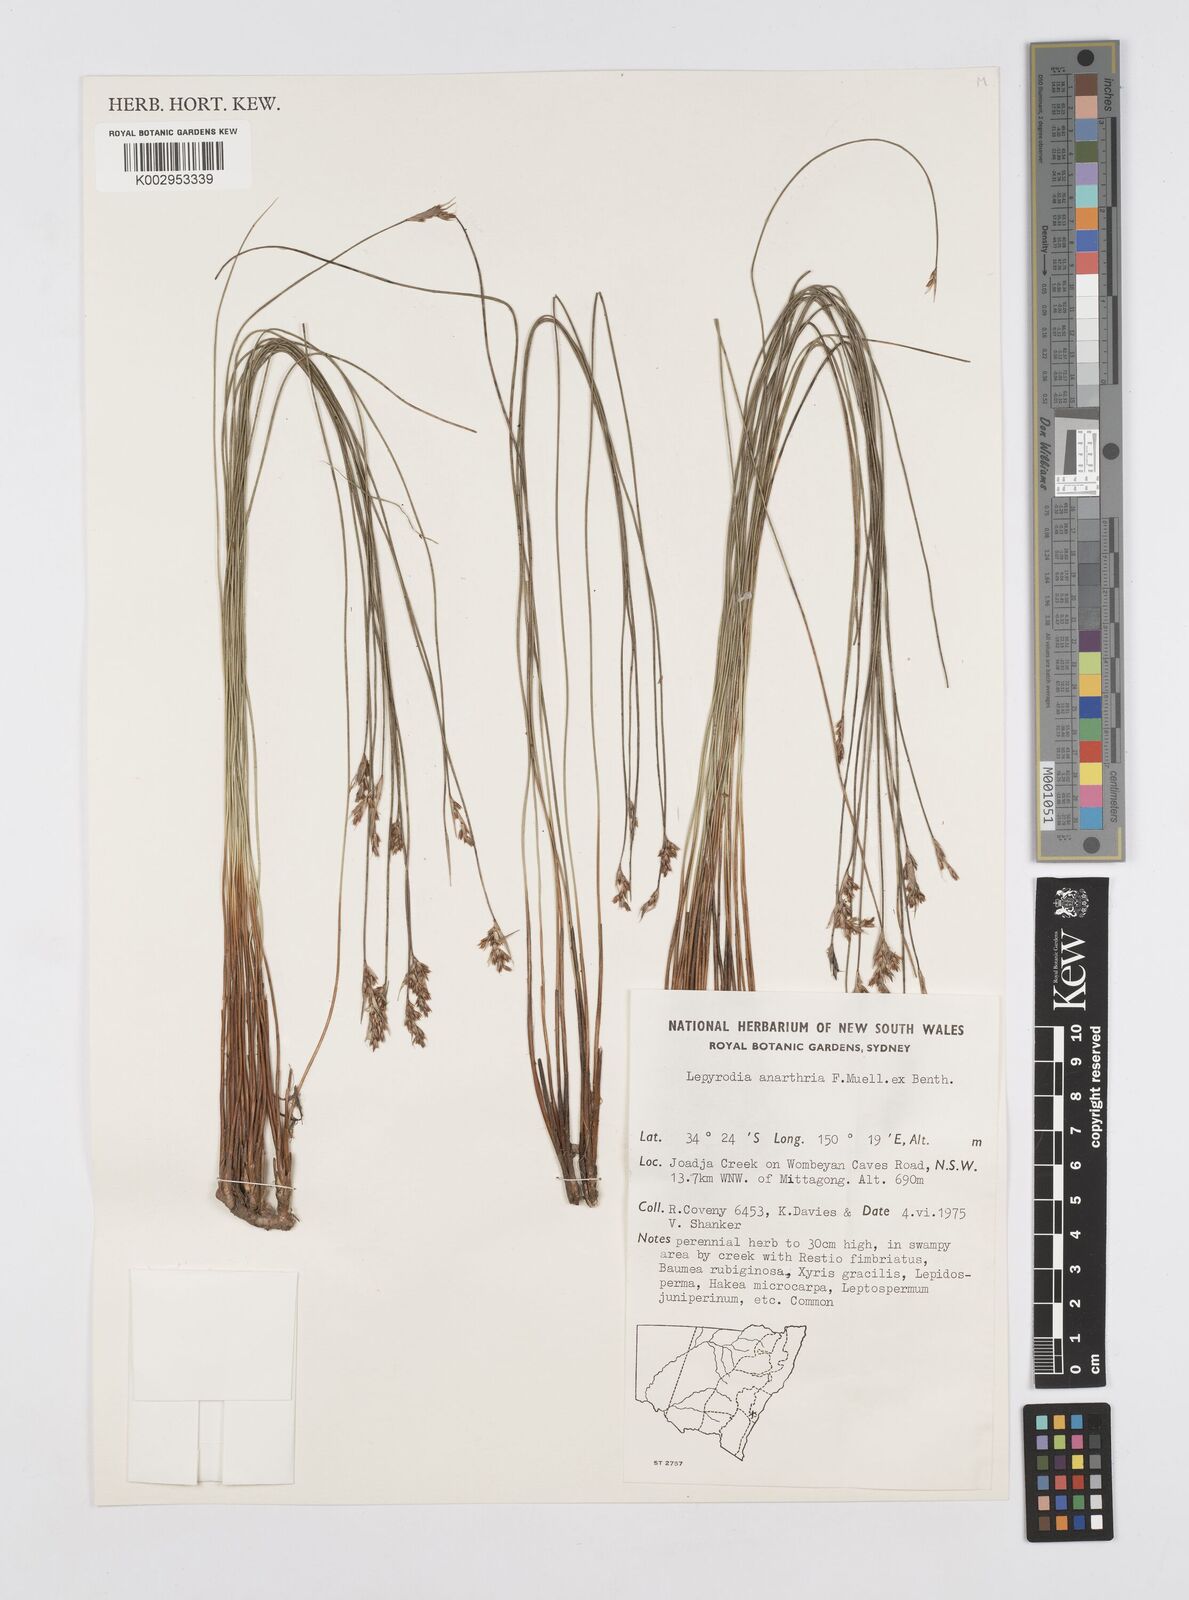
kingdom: Plantae
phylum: Tracheophyta
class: Liliopsida
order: Poales
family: Restionaceae
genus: Lepyrodia
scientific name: Lepyrodia anarthria
